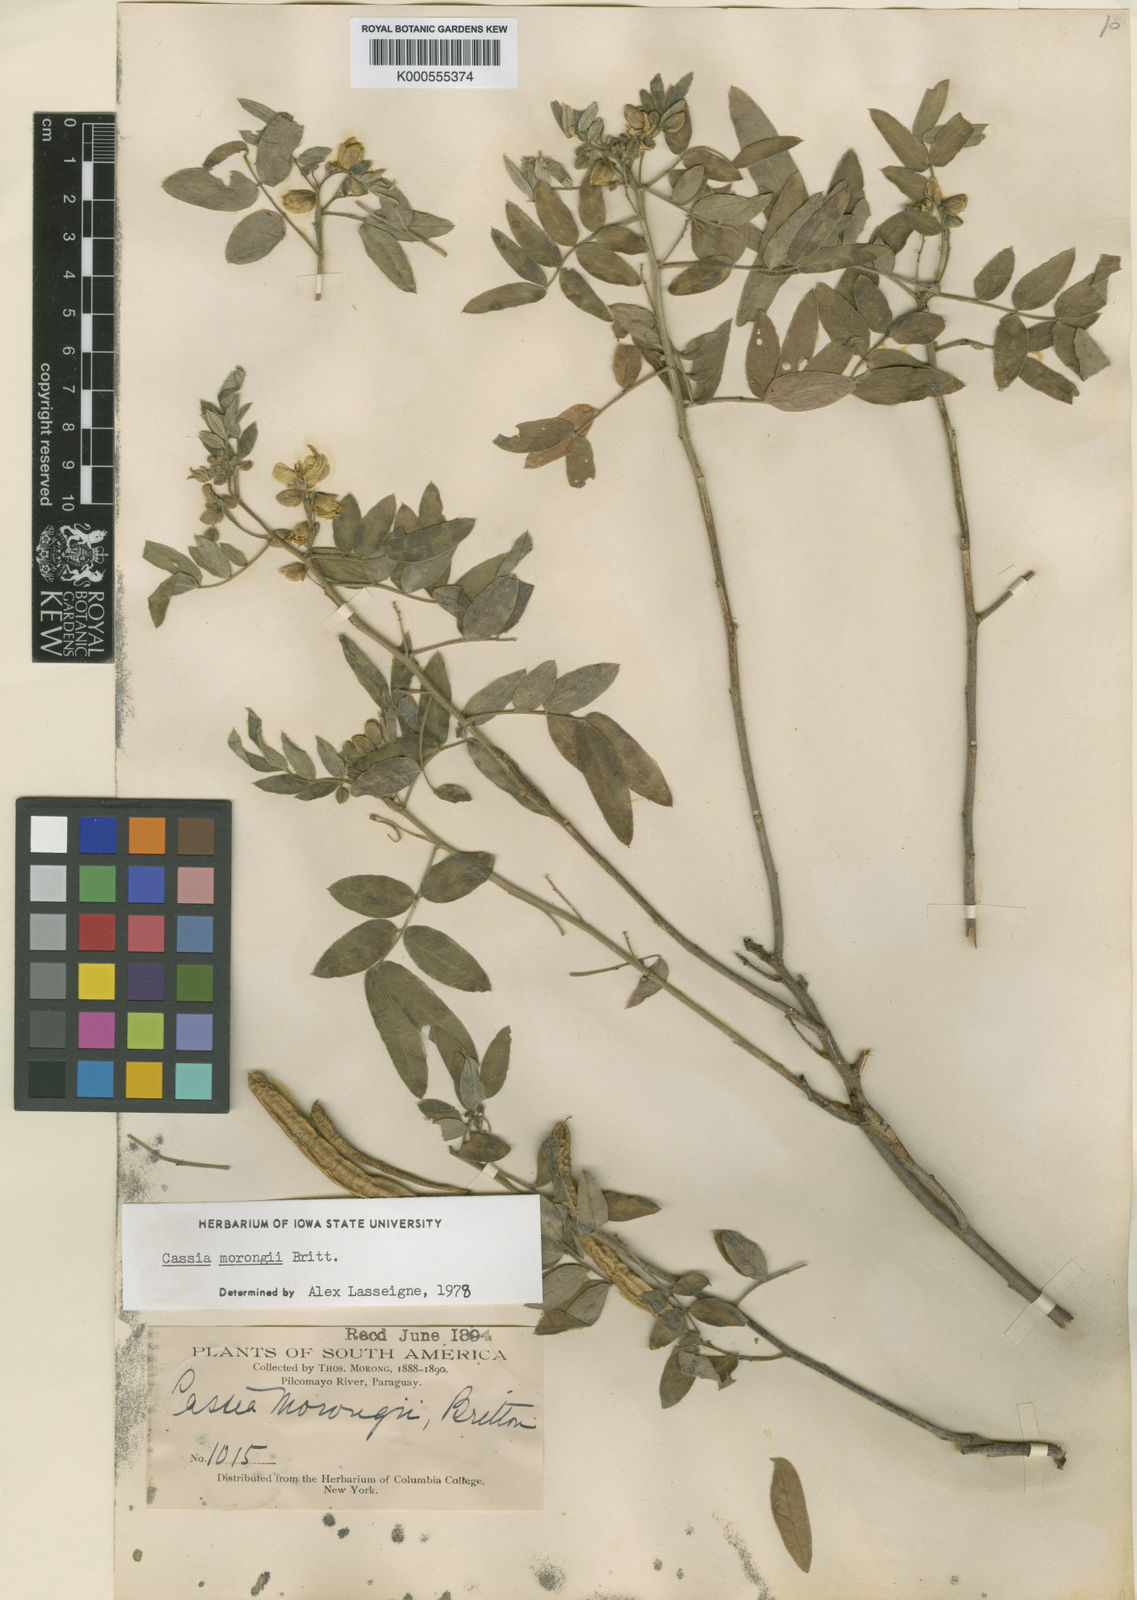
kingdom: Plantae
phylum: Tracheophyta
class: Magnoliopsida
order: Fabales
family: Fabaceae
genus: Senna
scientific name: Senna morongii
